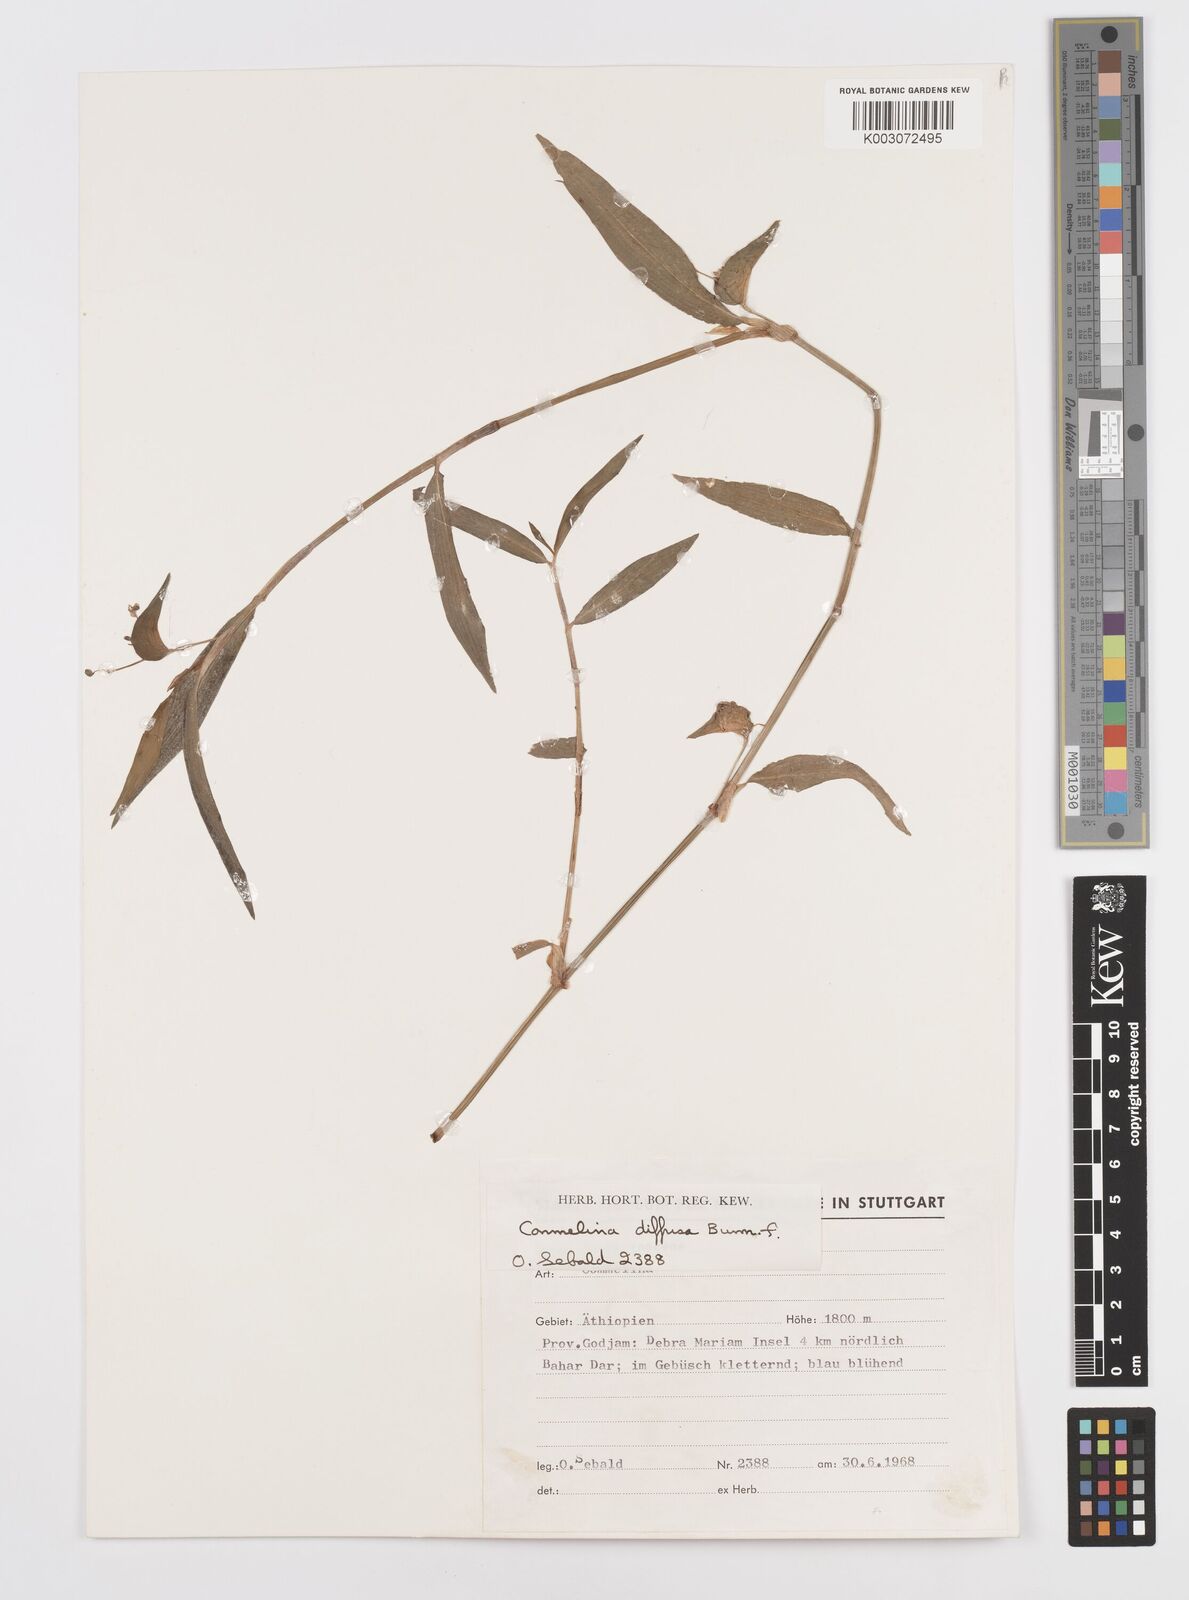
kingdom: Plantae
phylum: Tracheophyta
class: Liliopsida
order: Commelinales
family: Commelinaceae
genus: Commelina
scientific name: Commelina diffusa
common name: Climbing dayflower
